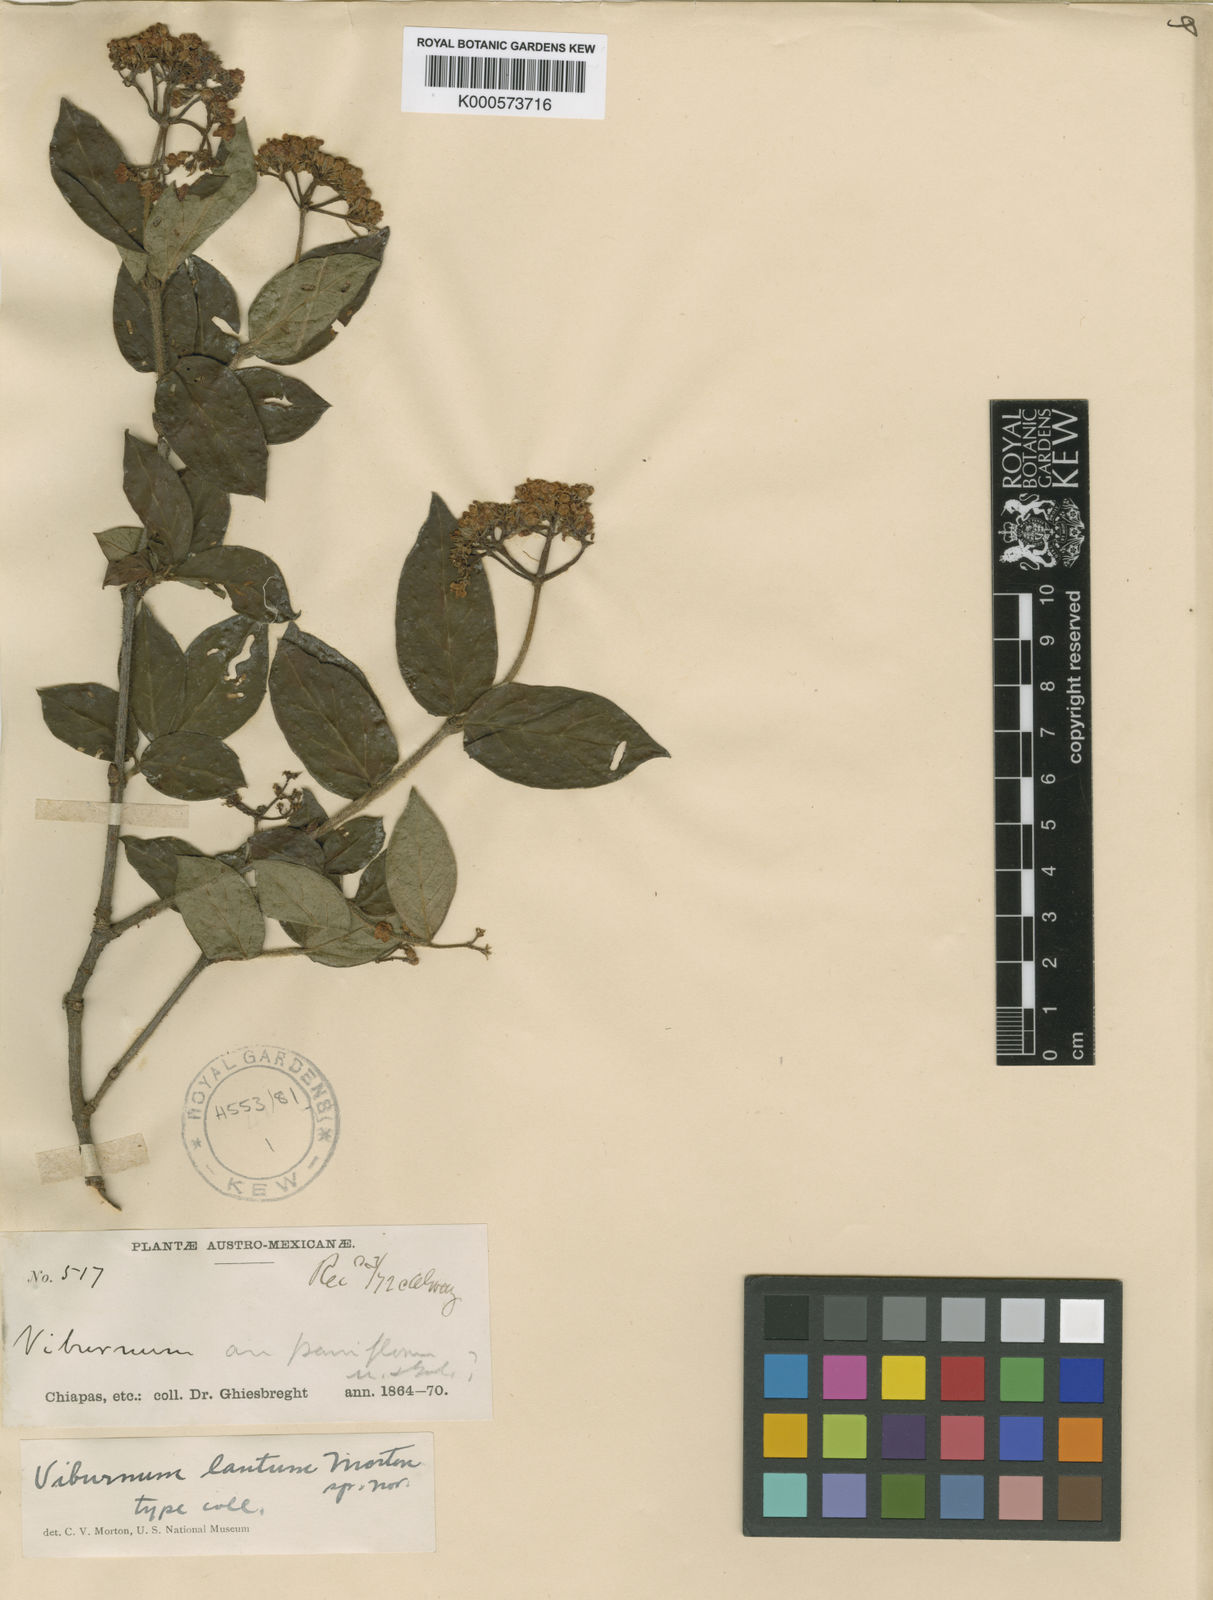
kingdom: Plantae
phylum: Tracheophyta
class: Magnoliopsida
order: Dipsacales
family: Viburnaceae
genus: Viburnum
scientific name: Viburnum lautum
